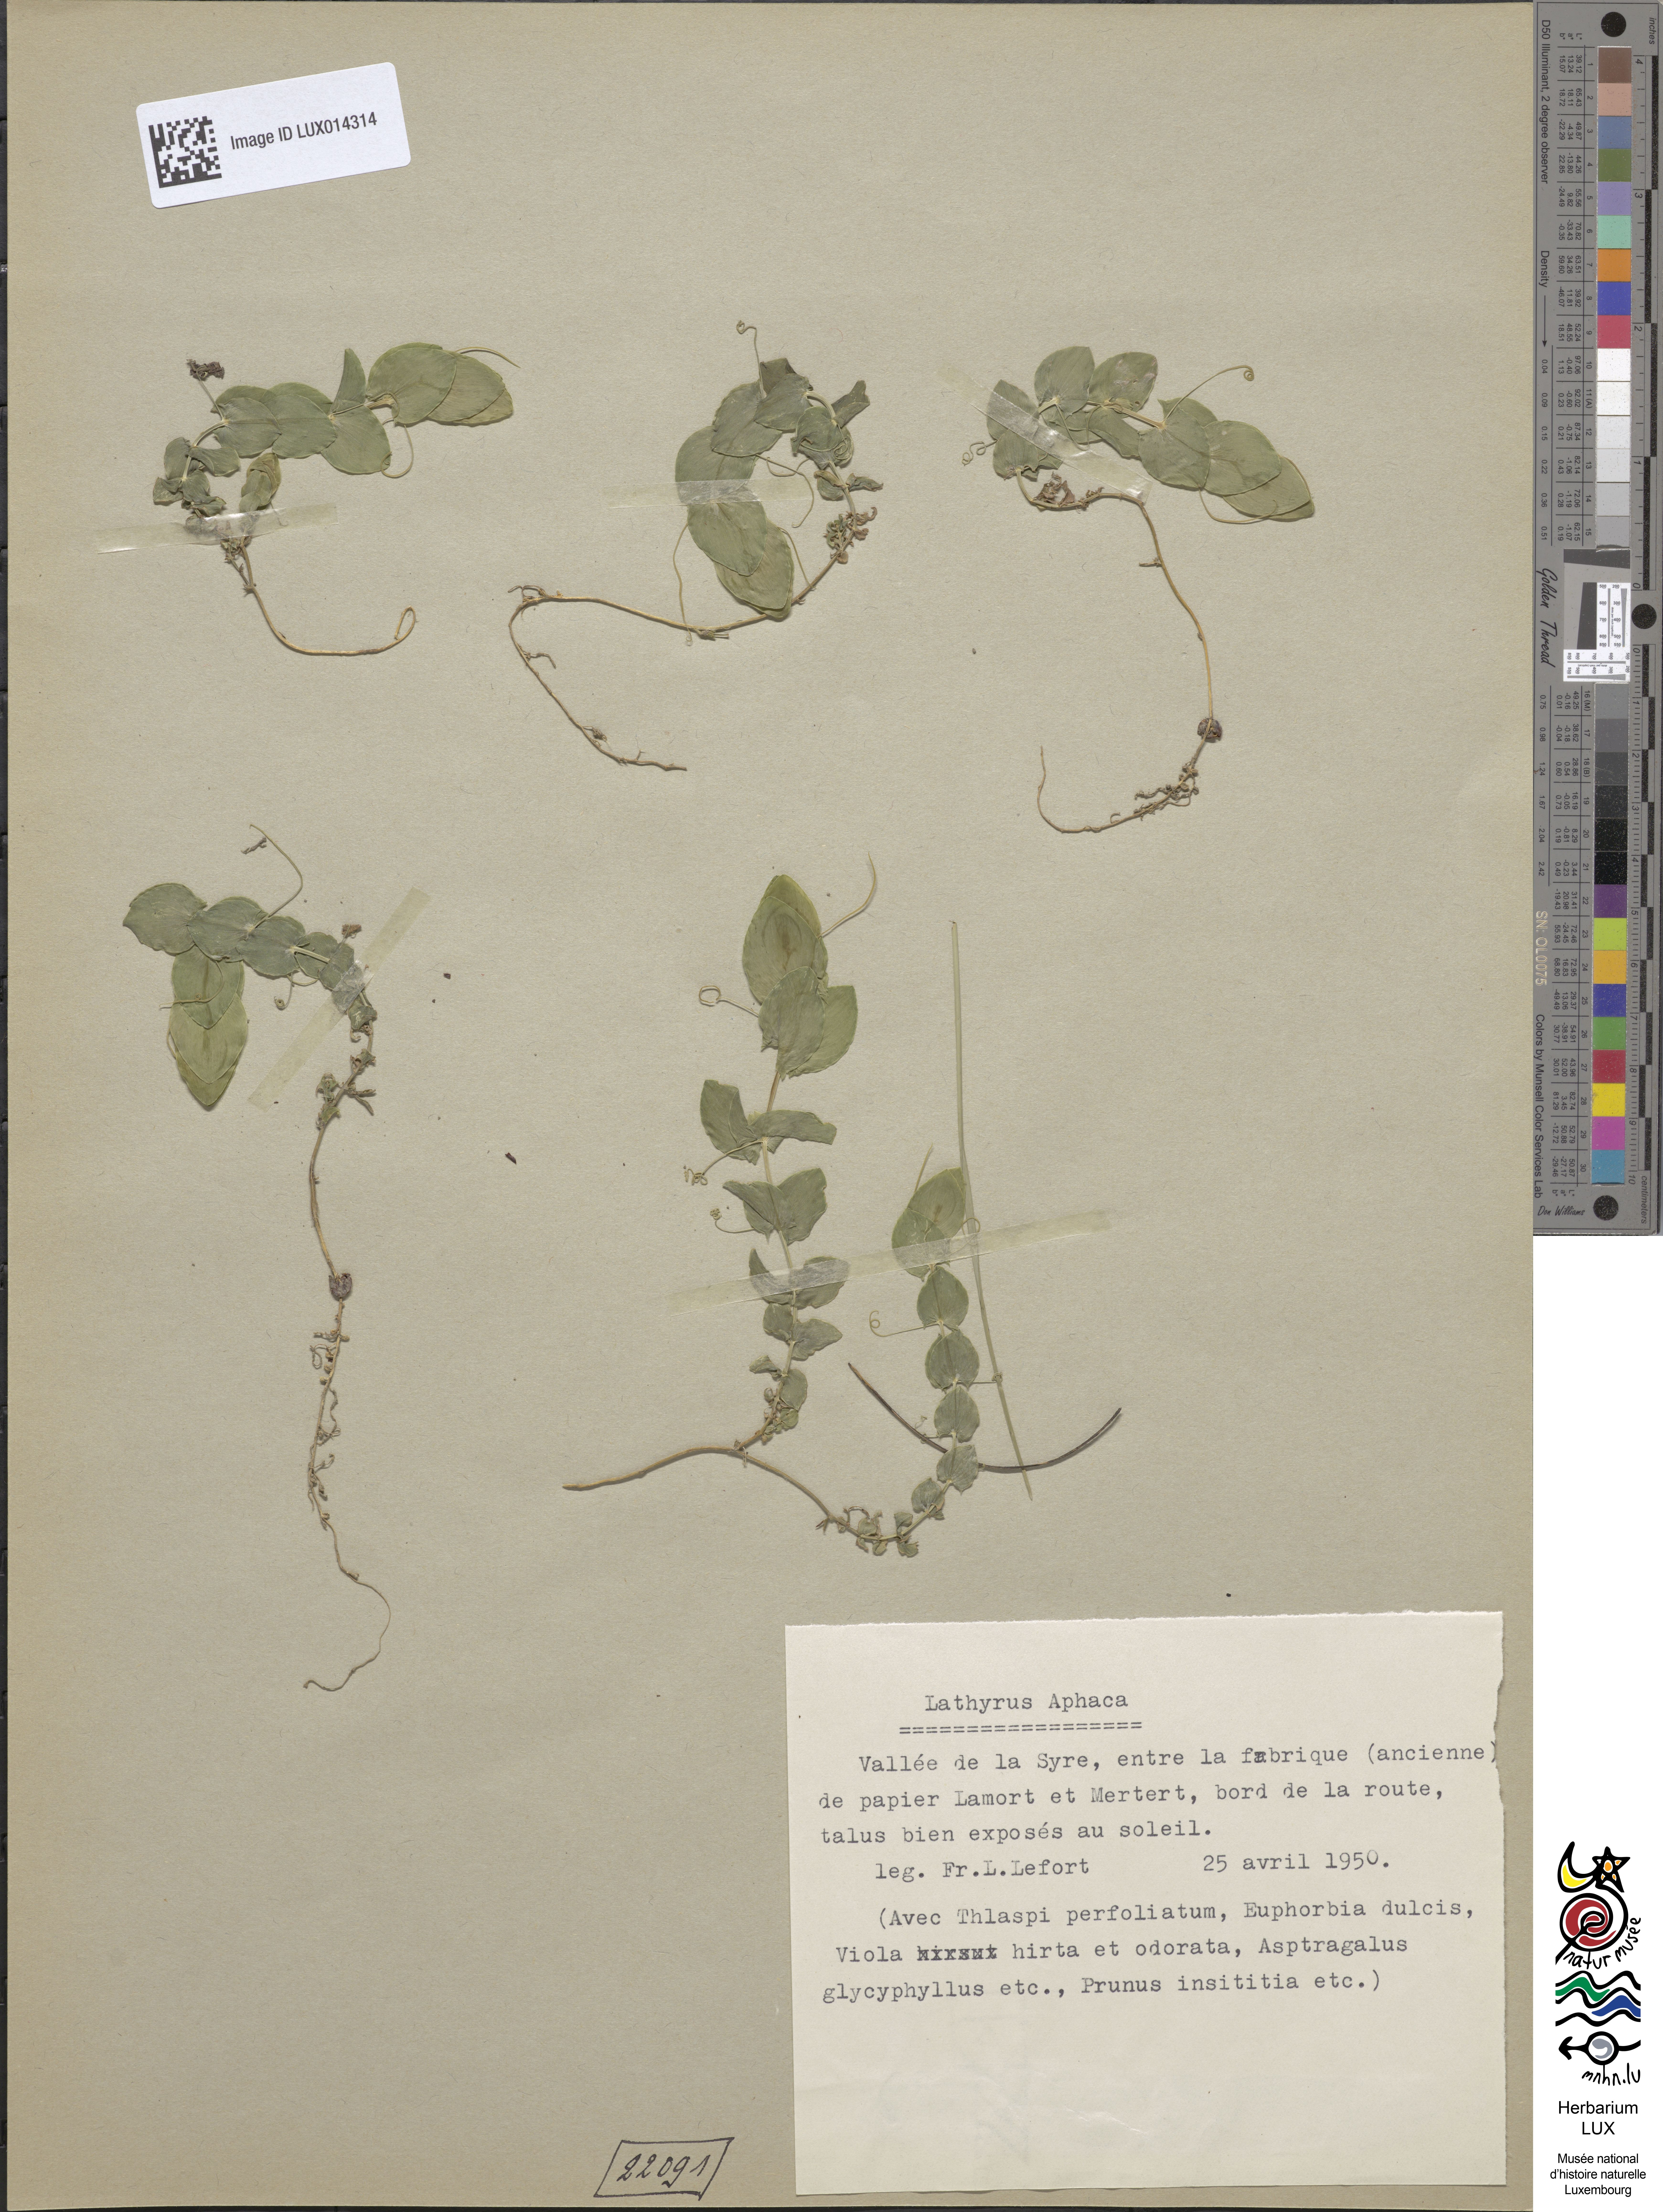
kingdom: Plantae
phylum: Tracheophyta
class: Magnoliopsida
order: Fabales
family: Fabaceae
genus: Lathyrus
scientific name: Lathyrus aphaca
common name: Yellow vetchling
